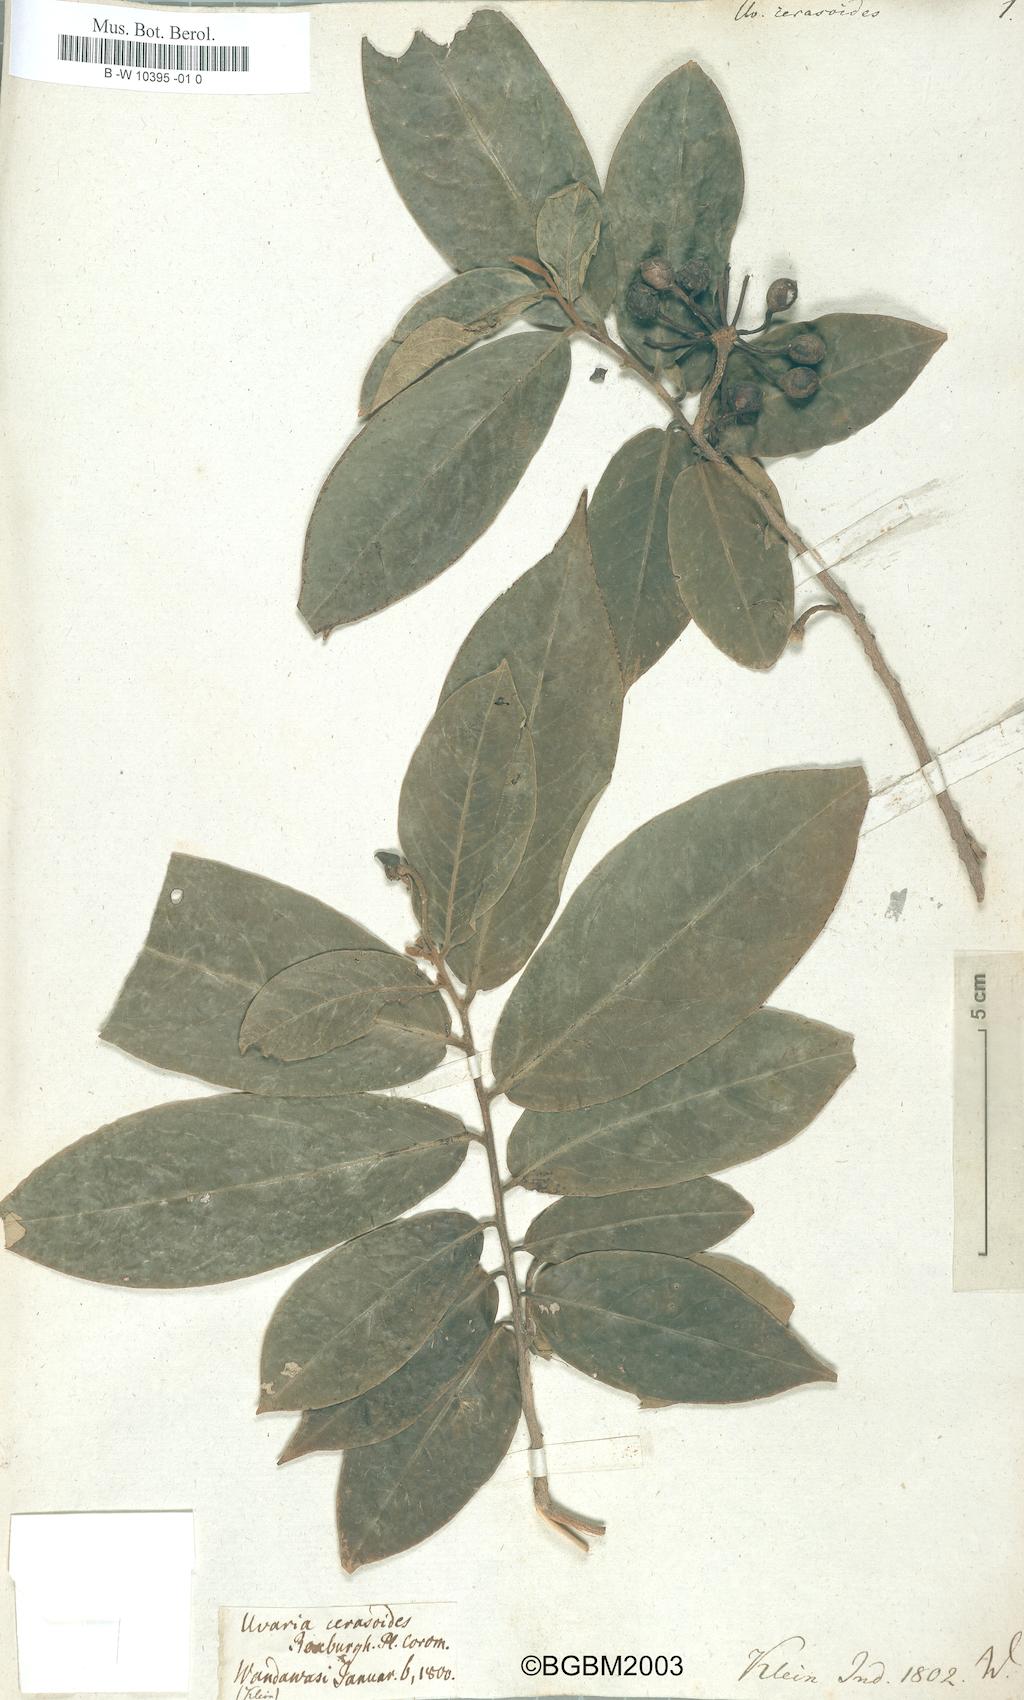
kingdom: Plantae
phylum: Tracheophyta
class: Magnoliopsida
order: Magnoliales
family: Annonaceae
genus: Hubera
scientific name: Hubera cerasoides
